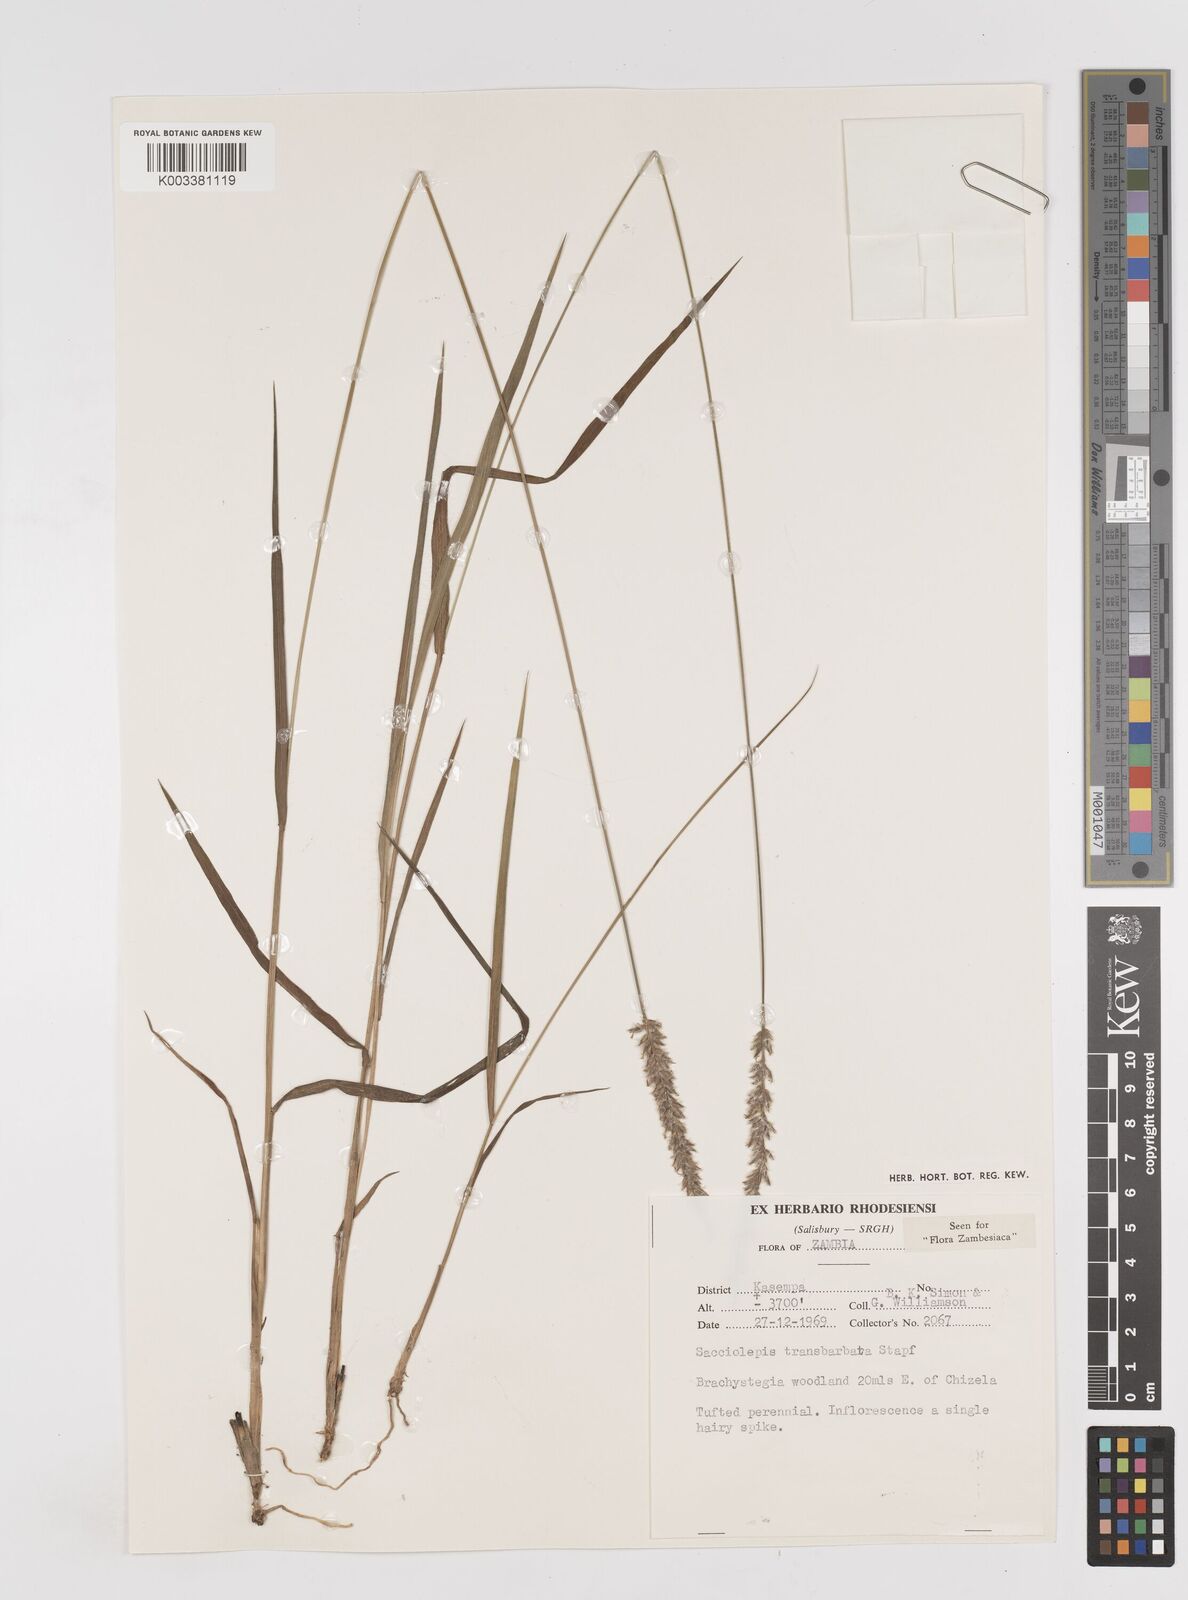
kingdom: Plantae
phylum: Tracheophyta
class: Liliopsida
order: Poales
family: Poaceae
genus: Sacciolepis
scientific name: Sacciolepis transbarbata
